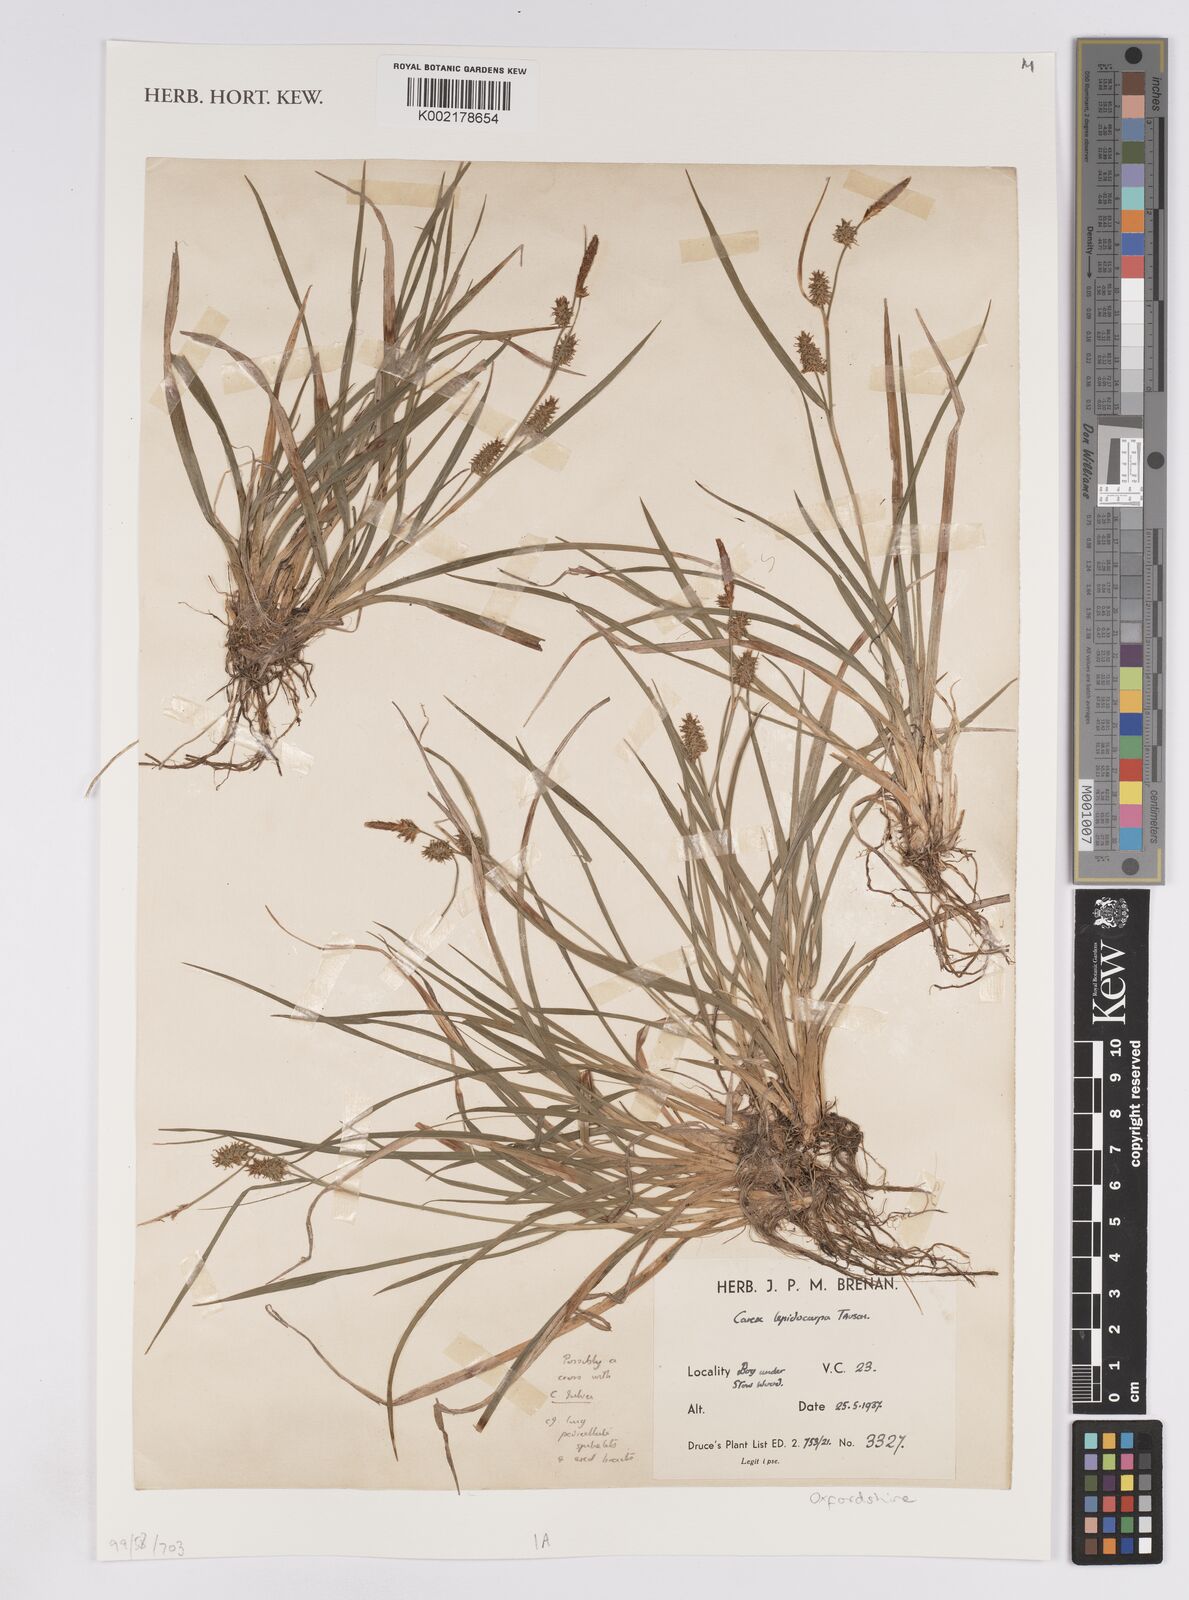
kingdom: Plantae
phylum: Tracheophyta
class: Liliopsida
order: Poales
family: Cyperaceae
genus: Carex
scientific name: Carex lepidocarpa
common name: Long-stalked yellow-sedge
